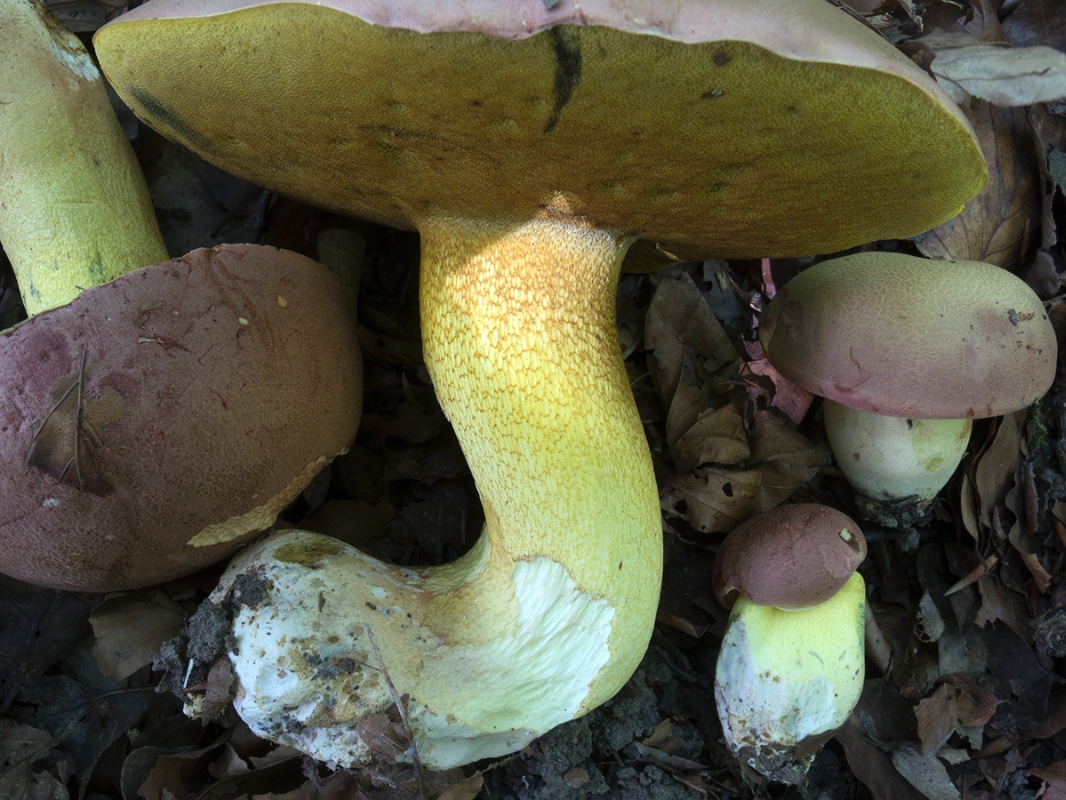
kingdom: Fungi
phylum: Basidiomycota
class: Agaricomycetes
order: Boletales
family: Boletaceae
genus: Butyriboletus
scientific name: Butyriboletus fuscoroseus
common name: brunrosa rørhat
